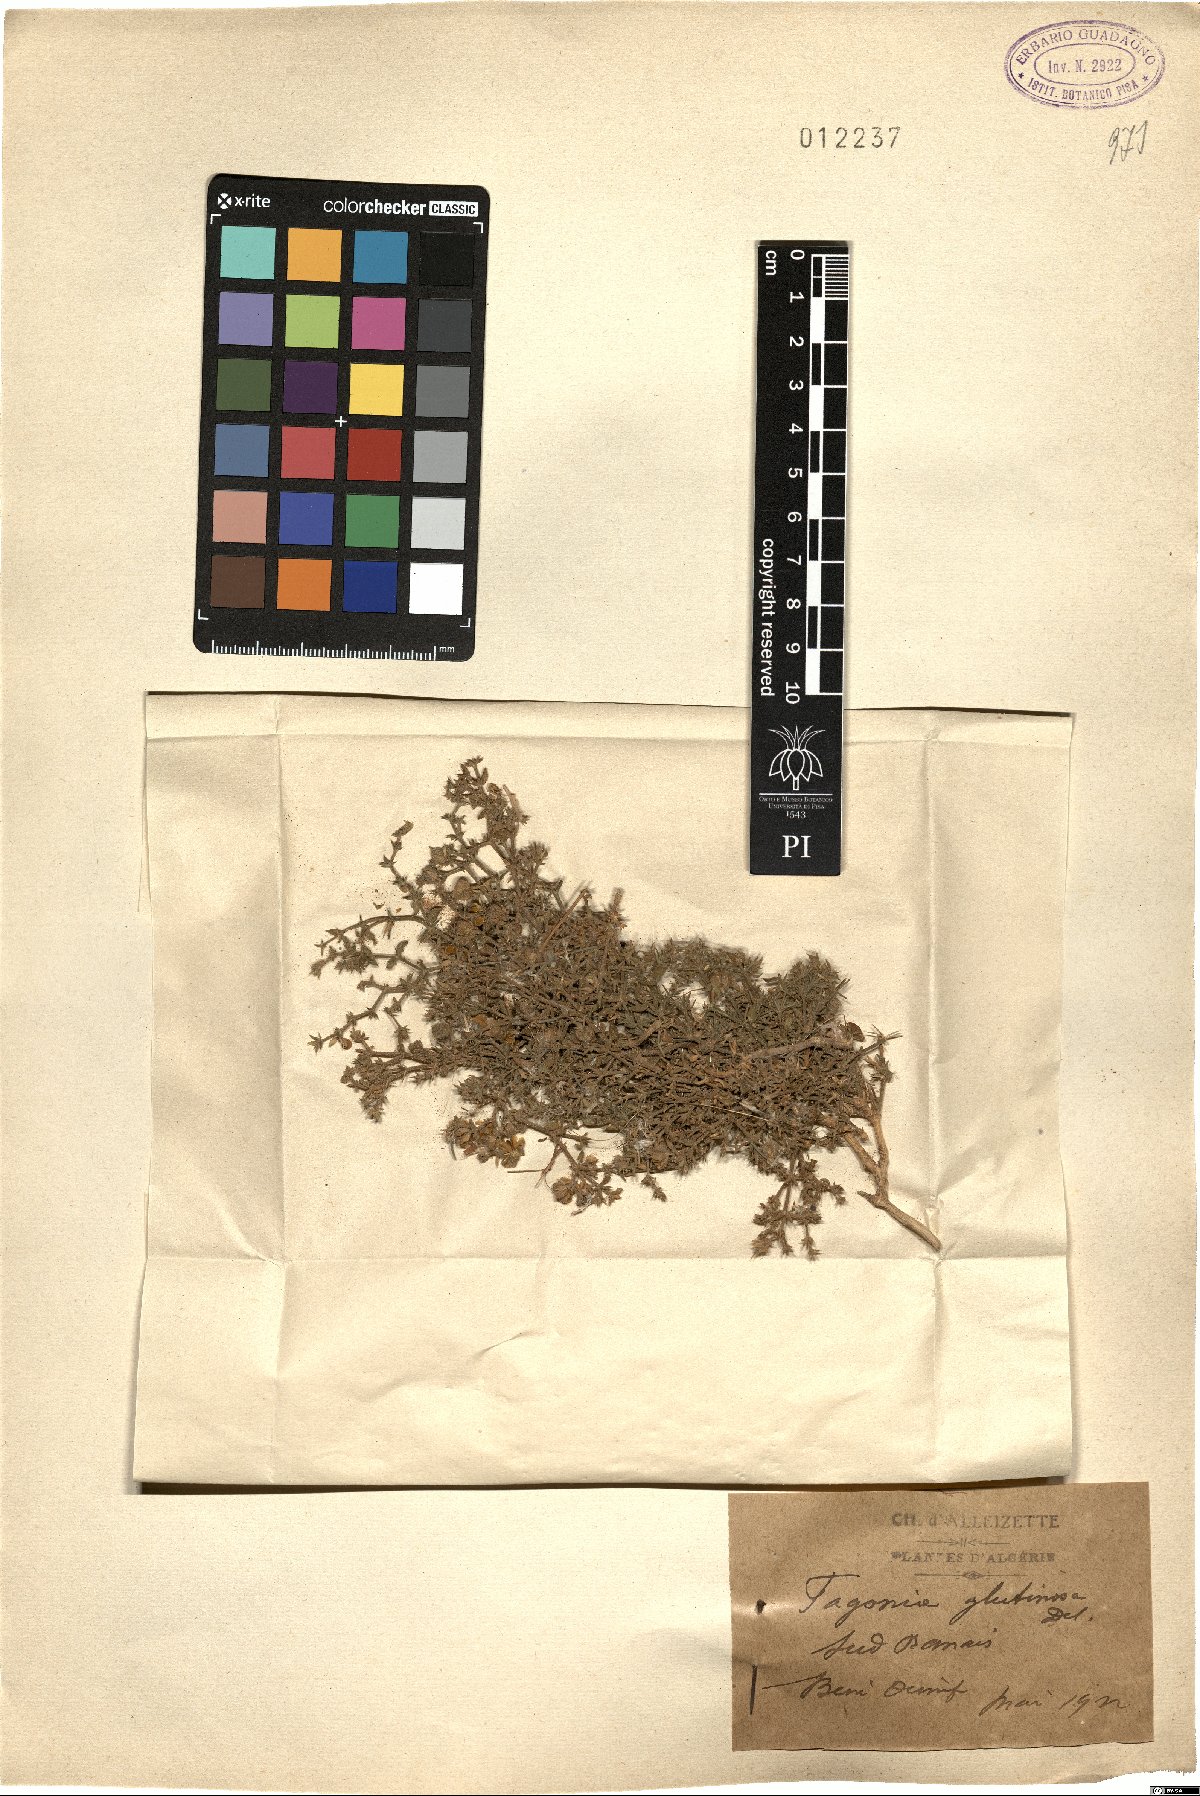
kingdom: Plantae
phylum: Tracheophyta
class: Magnoliopsida
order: Zygophyllales
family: Zygophyllaceae
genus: Fagonia
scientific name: Fagonia glutinosa
